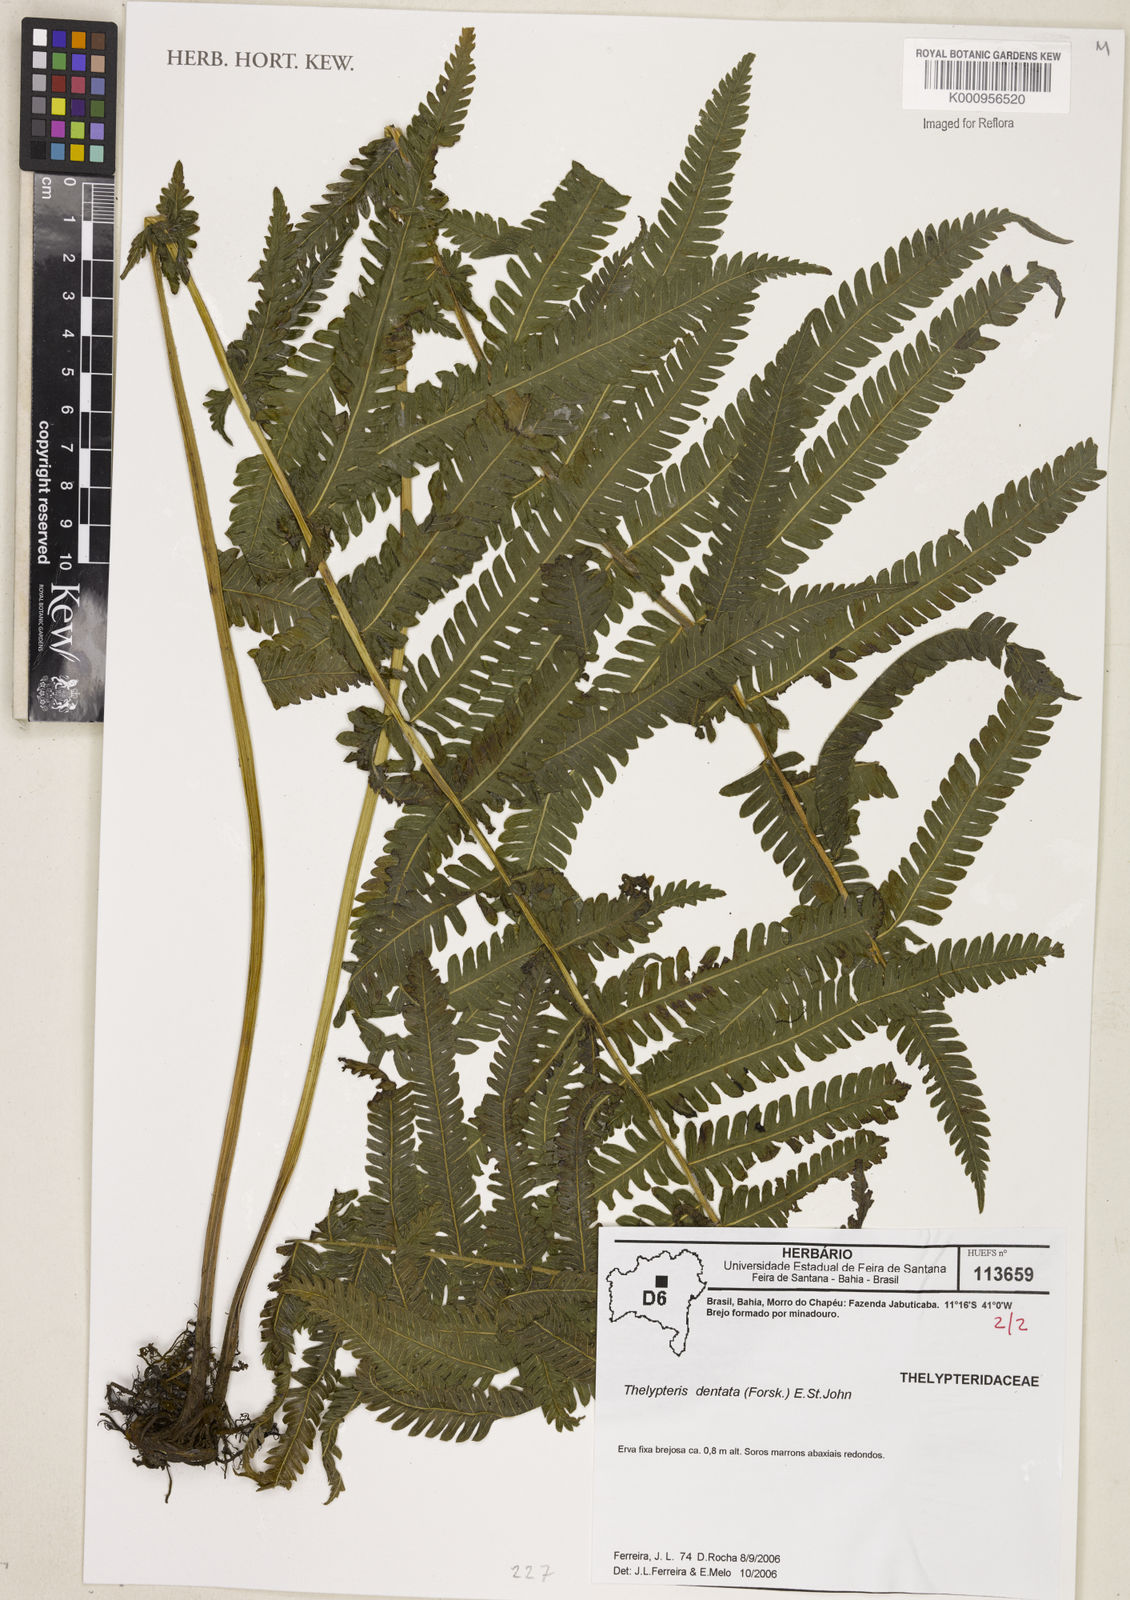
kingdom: Plantae
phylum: Tracheophyta
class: Polypodiopsida
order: Polypodiales
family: Thelypteridaceae
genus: Christella
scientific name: Christella dentata
